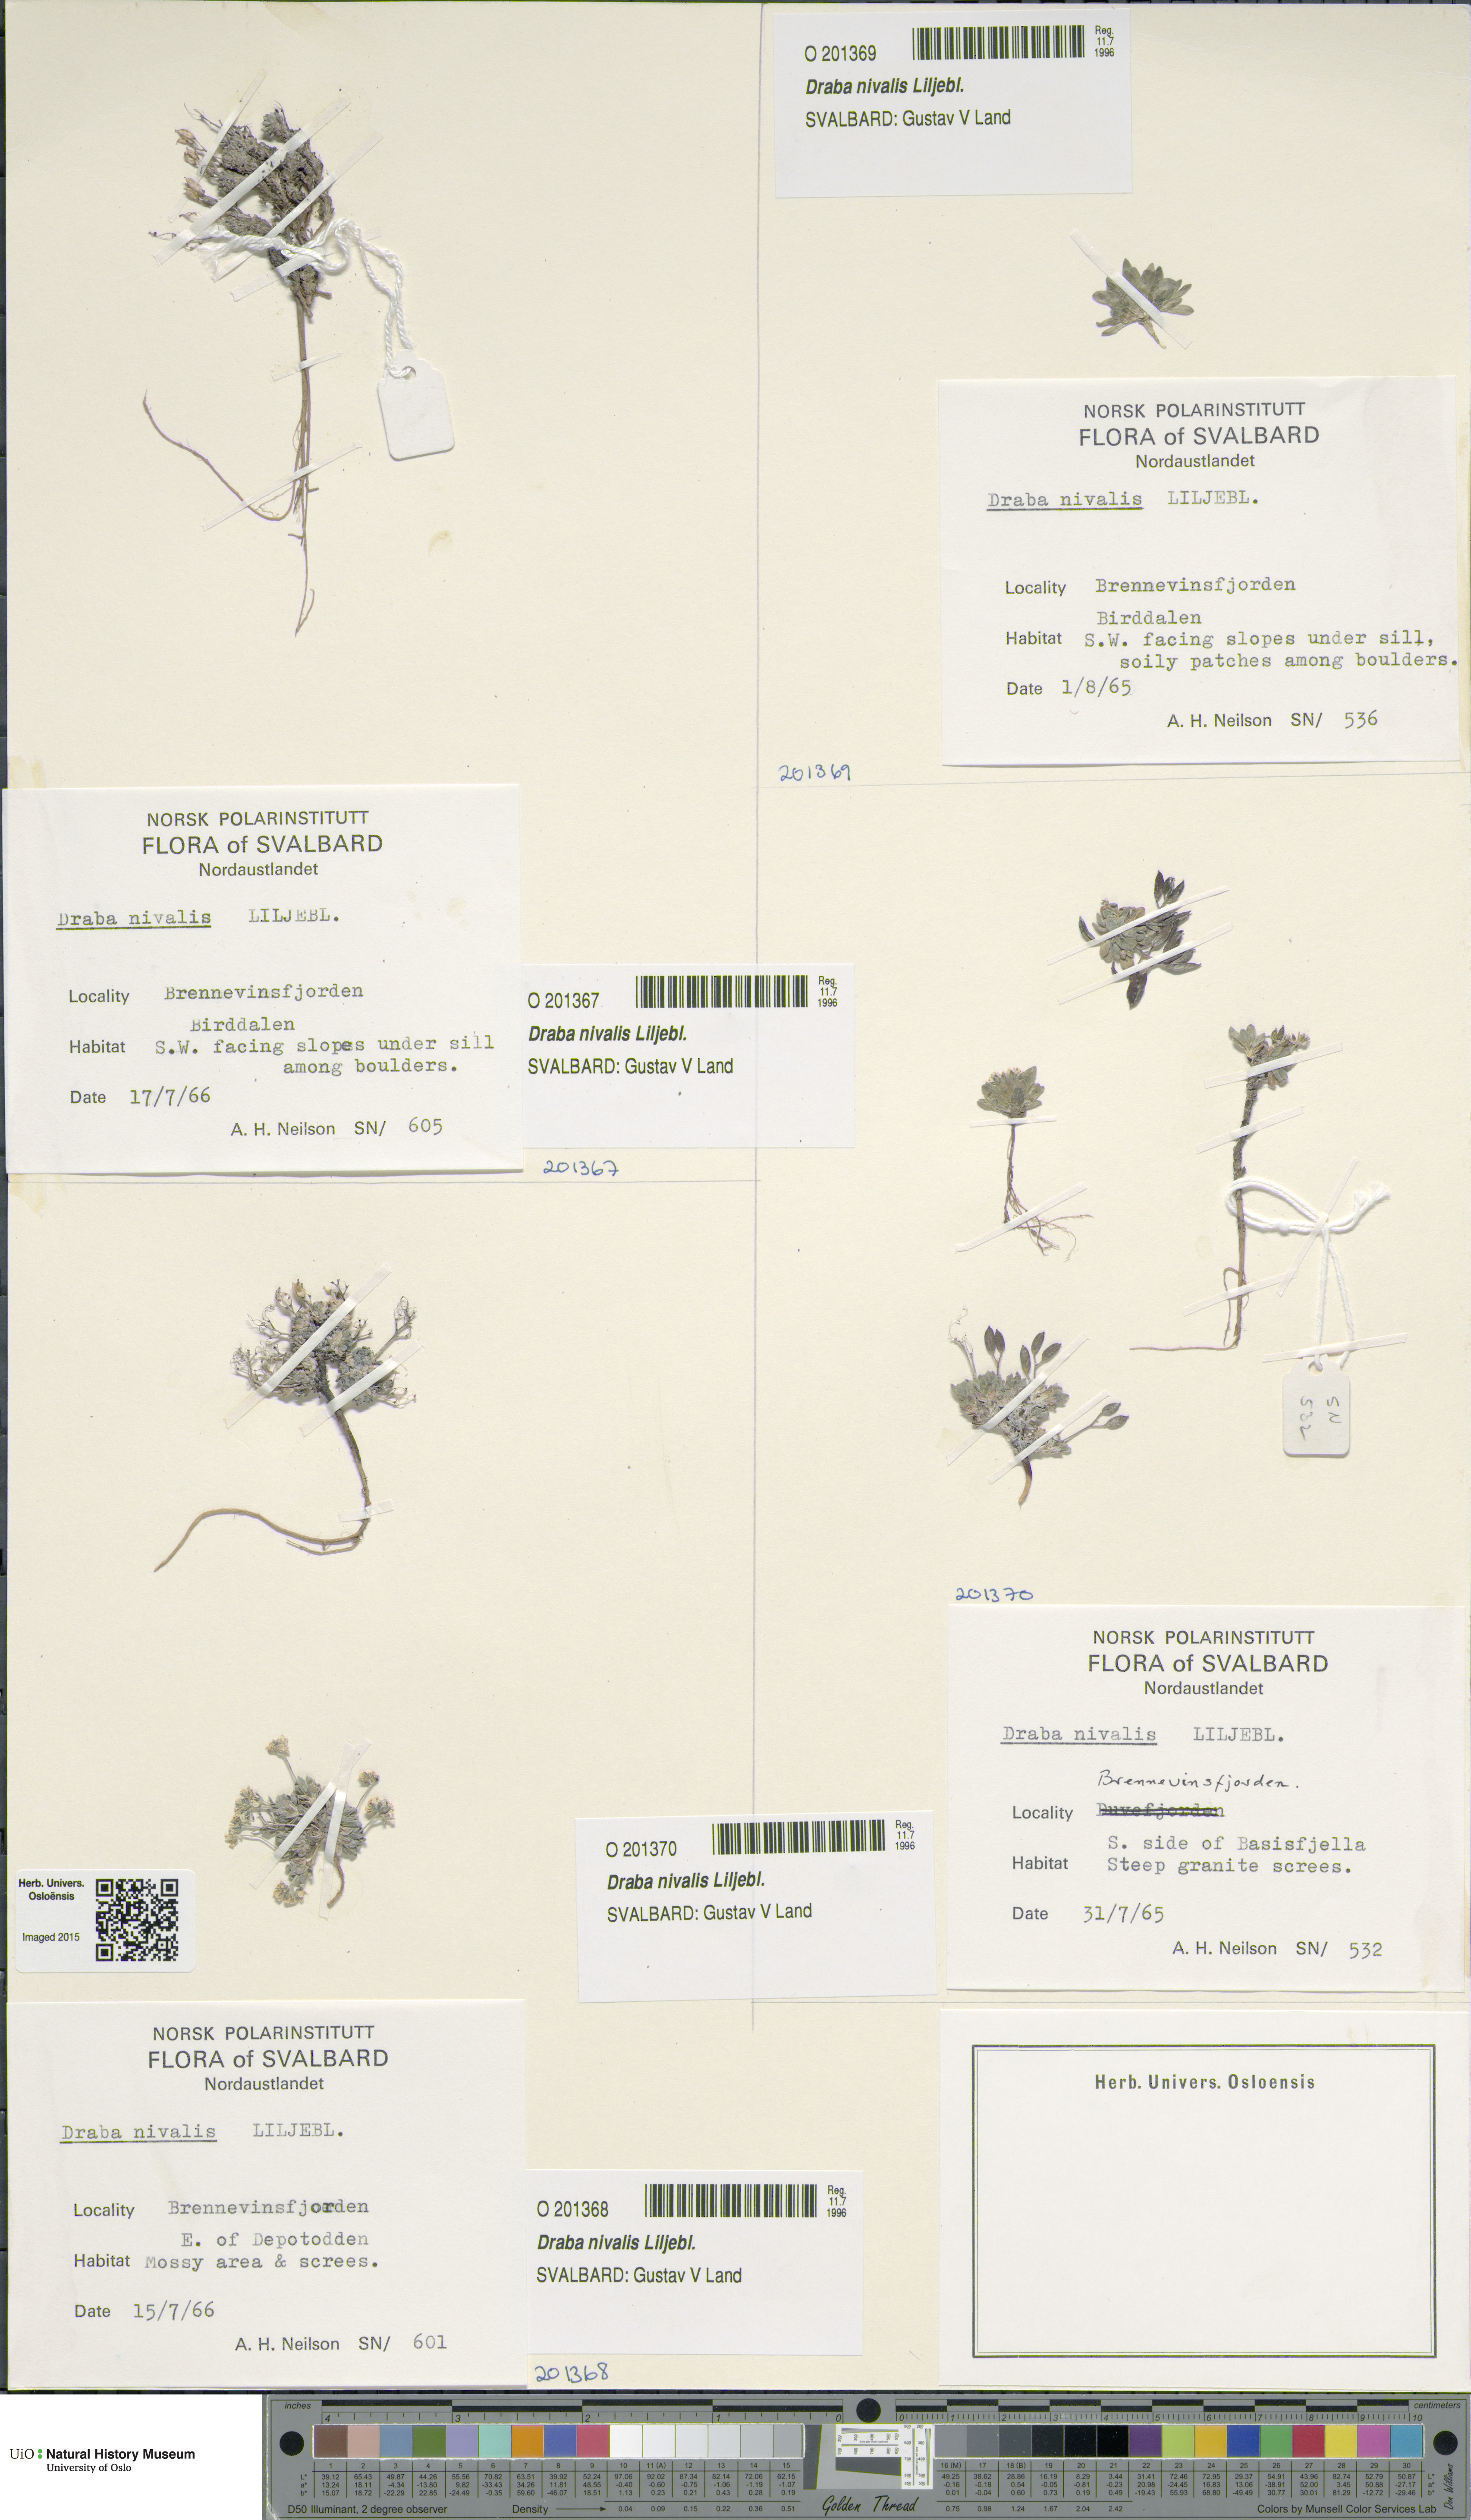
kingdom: Plantae
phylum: Tracheophyta
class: Magnoliopsida
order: Brassicales
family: Brassicaceae
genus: Draba
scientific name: Draba nivalis
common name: Snow draba
